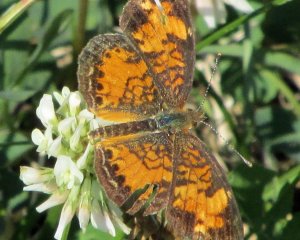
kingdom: Animalia
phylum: Arthropoda
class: Insecta
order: Lepidoptera
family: Nymphalidae
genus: Phyciodes
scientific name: Phyciodes tharos
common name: Northern Crescent
